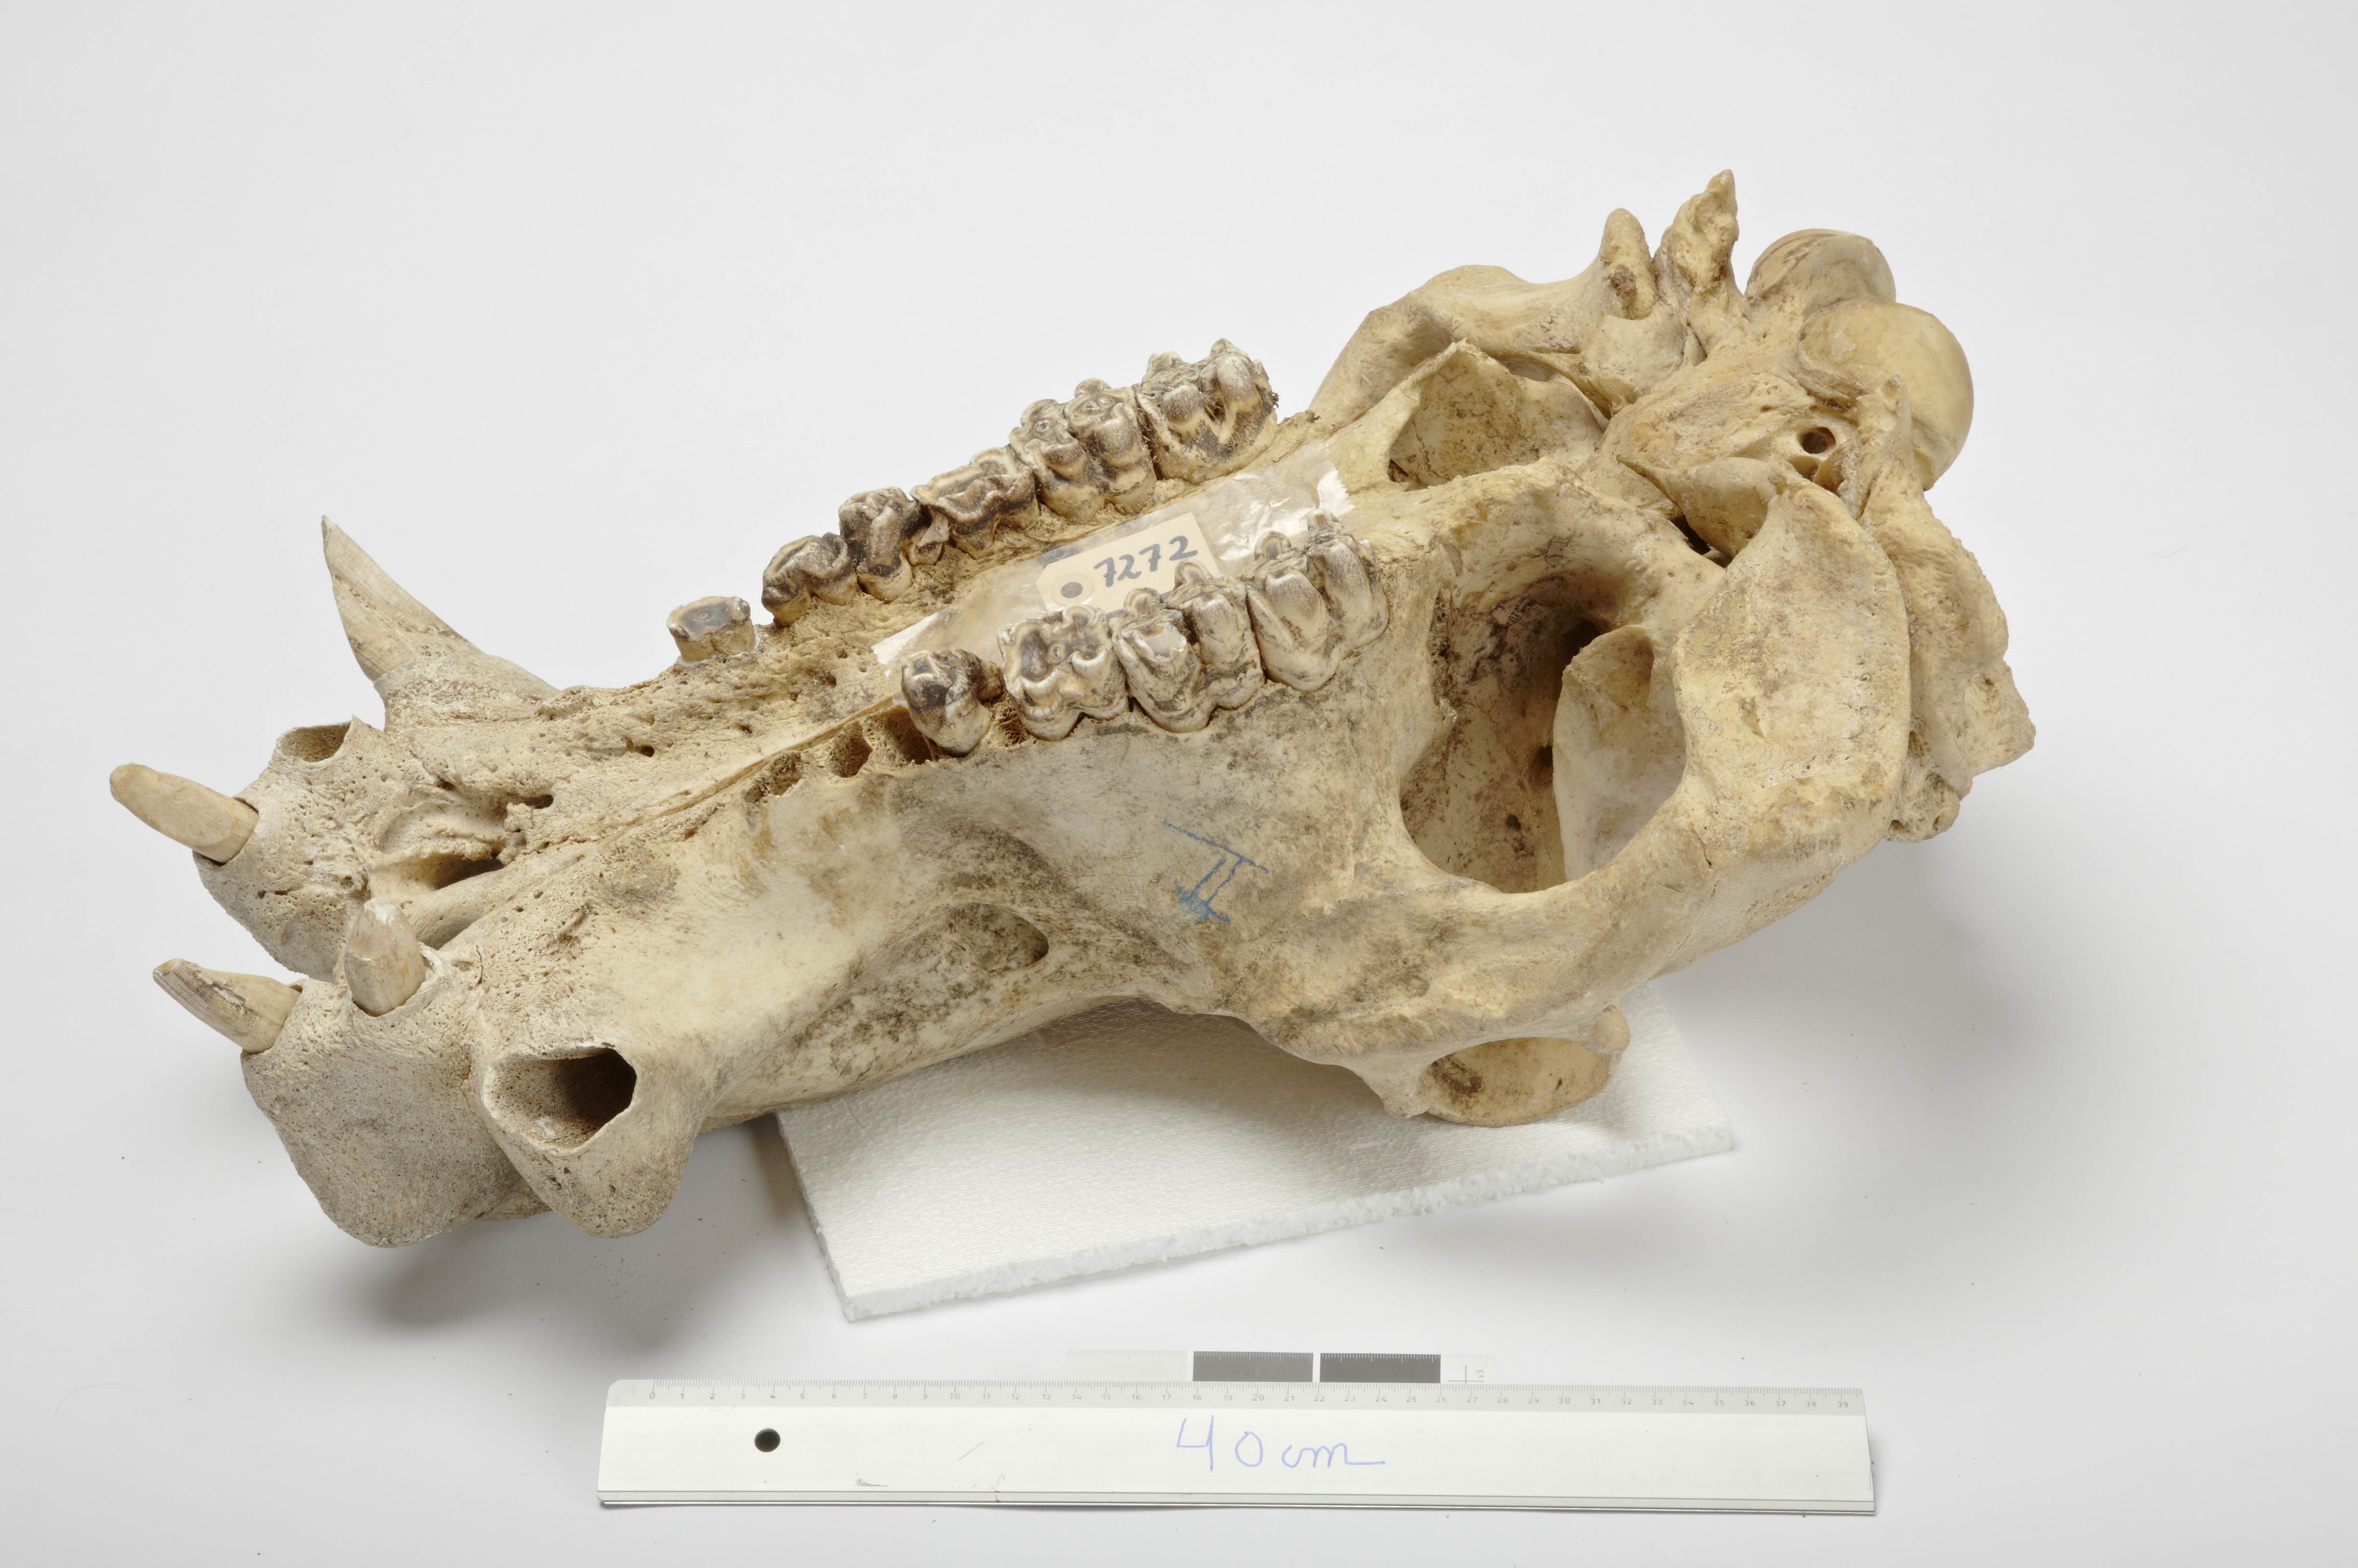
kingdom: Animalia
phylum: Chordata
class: Mammalia
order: Artiodactyla
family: Hippopotamidae
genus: Hippopotamus
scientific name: Hippopotamus
